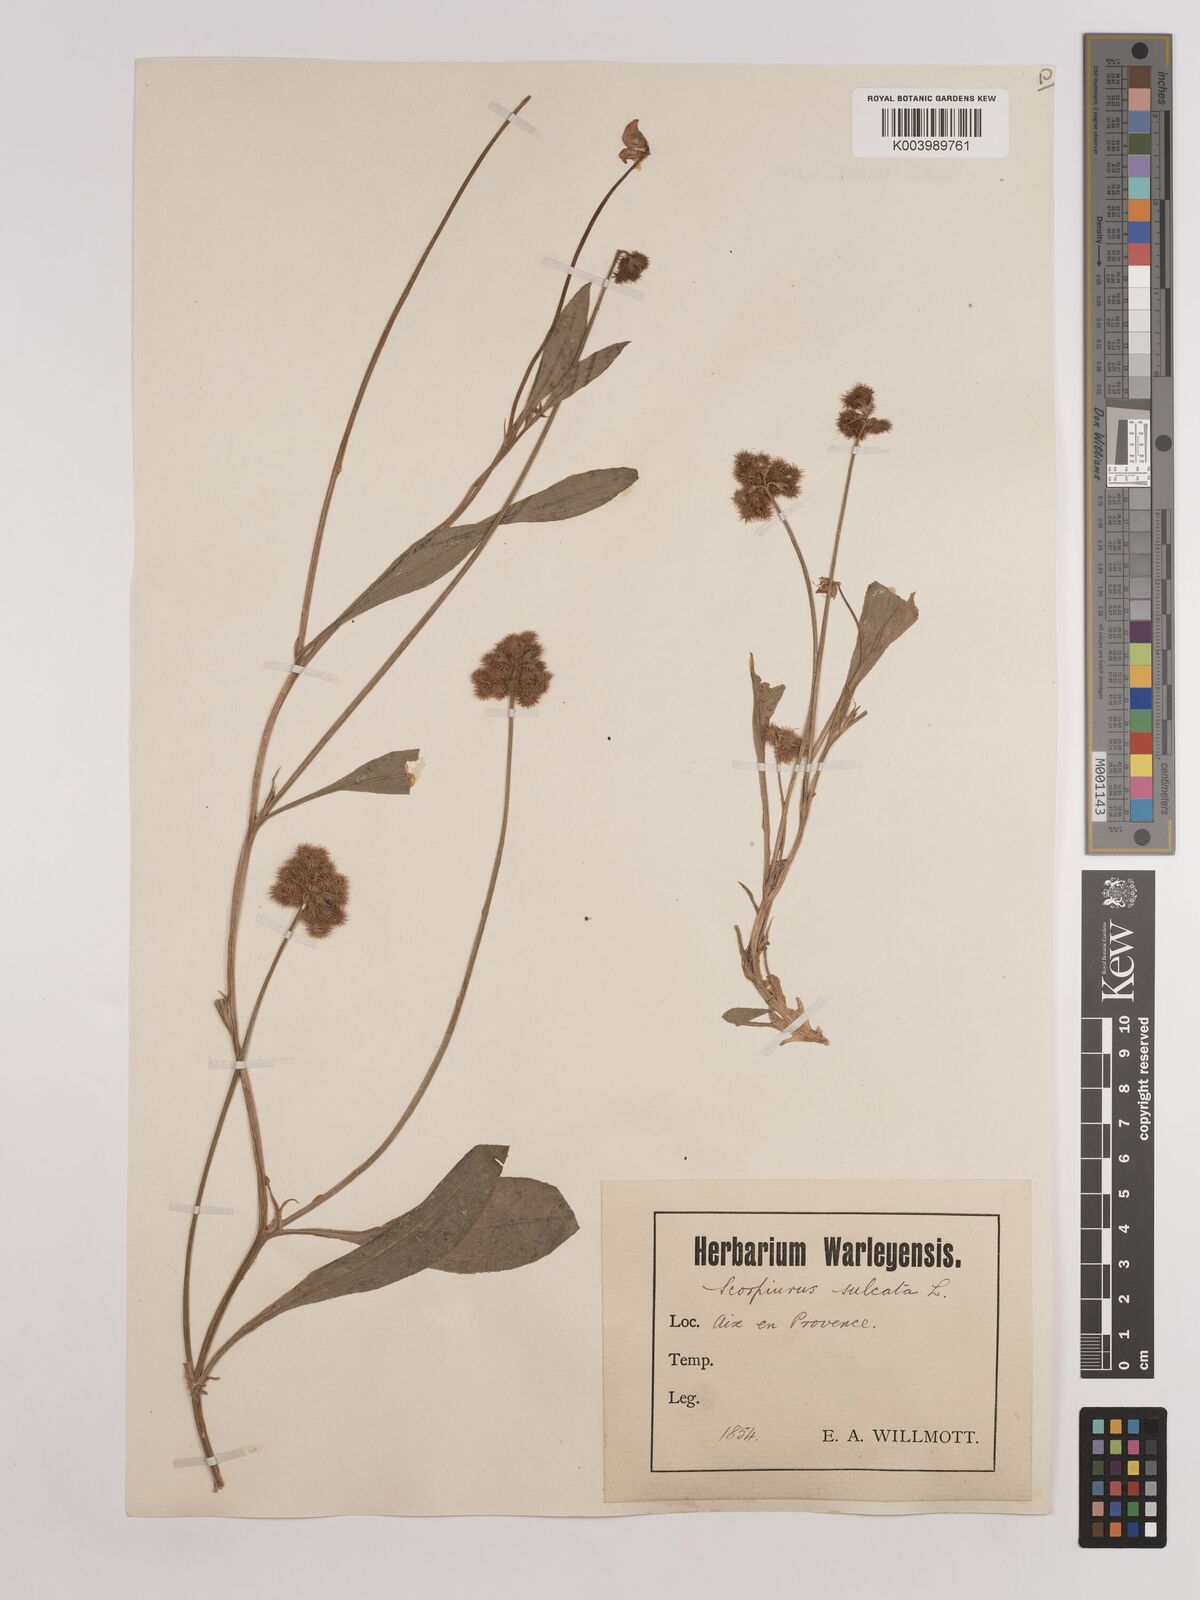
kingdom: Plantae
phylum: Tracheophyta
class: Magnoliopsida
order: Fabales
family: Fabaceae
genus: Scorpiurus
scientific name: Scorpiurus muricatus
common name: Caterpillar-plant
